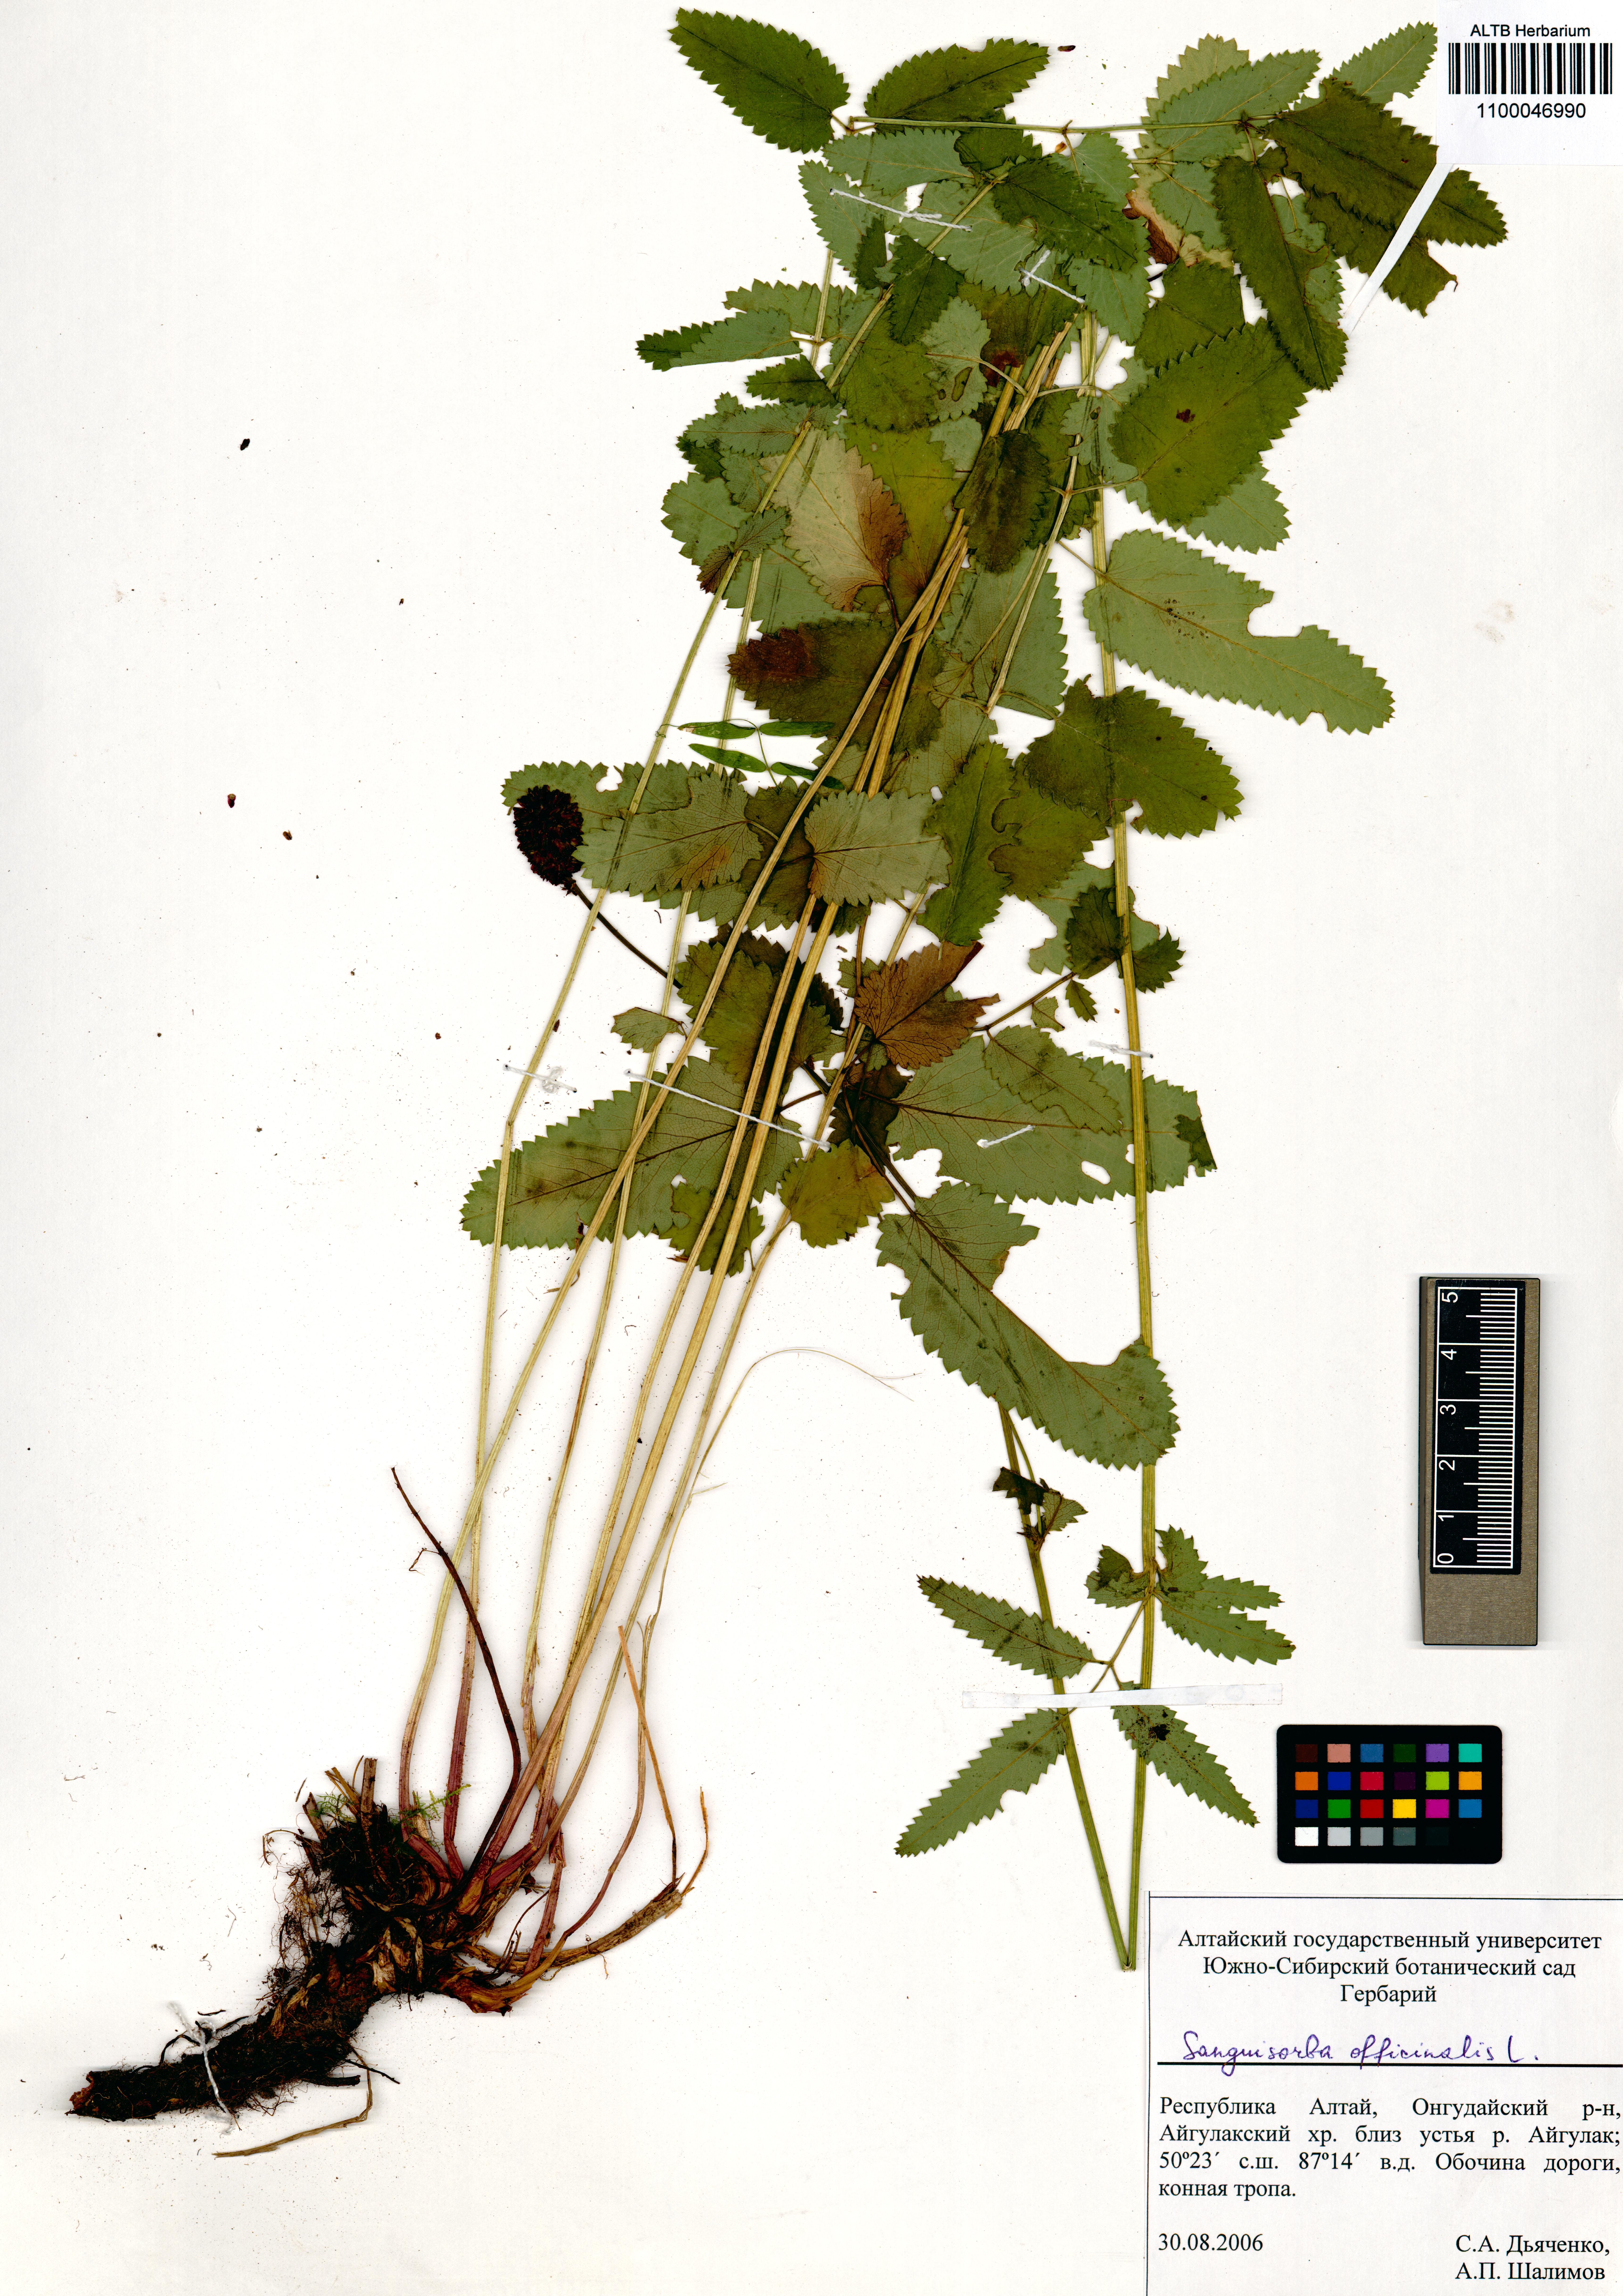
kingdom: Plantae
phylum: Tracheophyta
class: Magnoliopsida
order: Rosales
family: Rosaceae
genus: Sanguisorba
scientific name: Sanguisorba officinalis
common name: Great burnet
